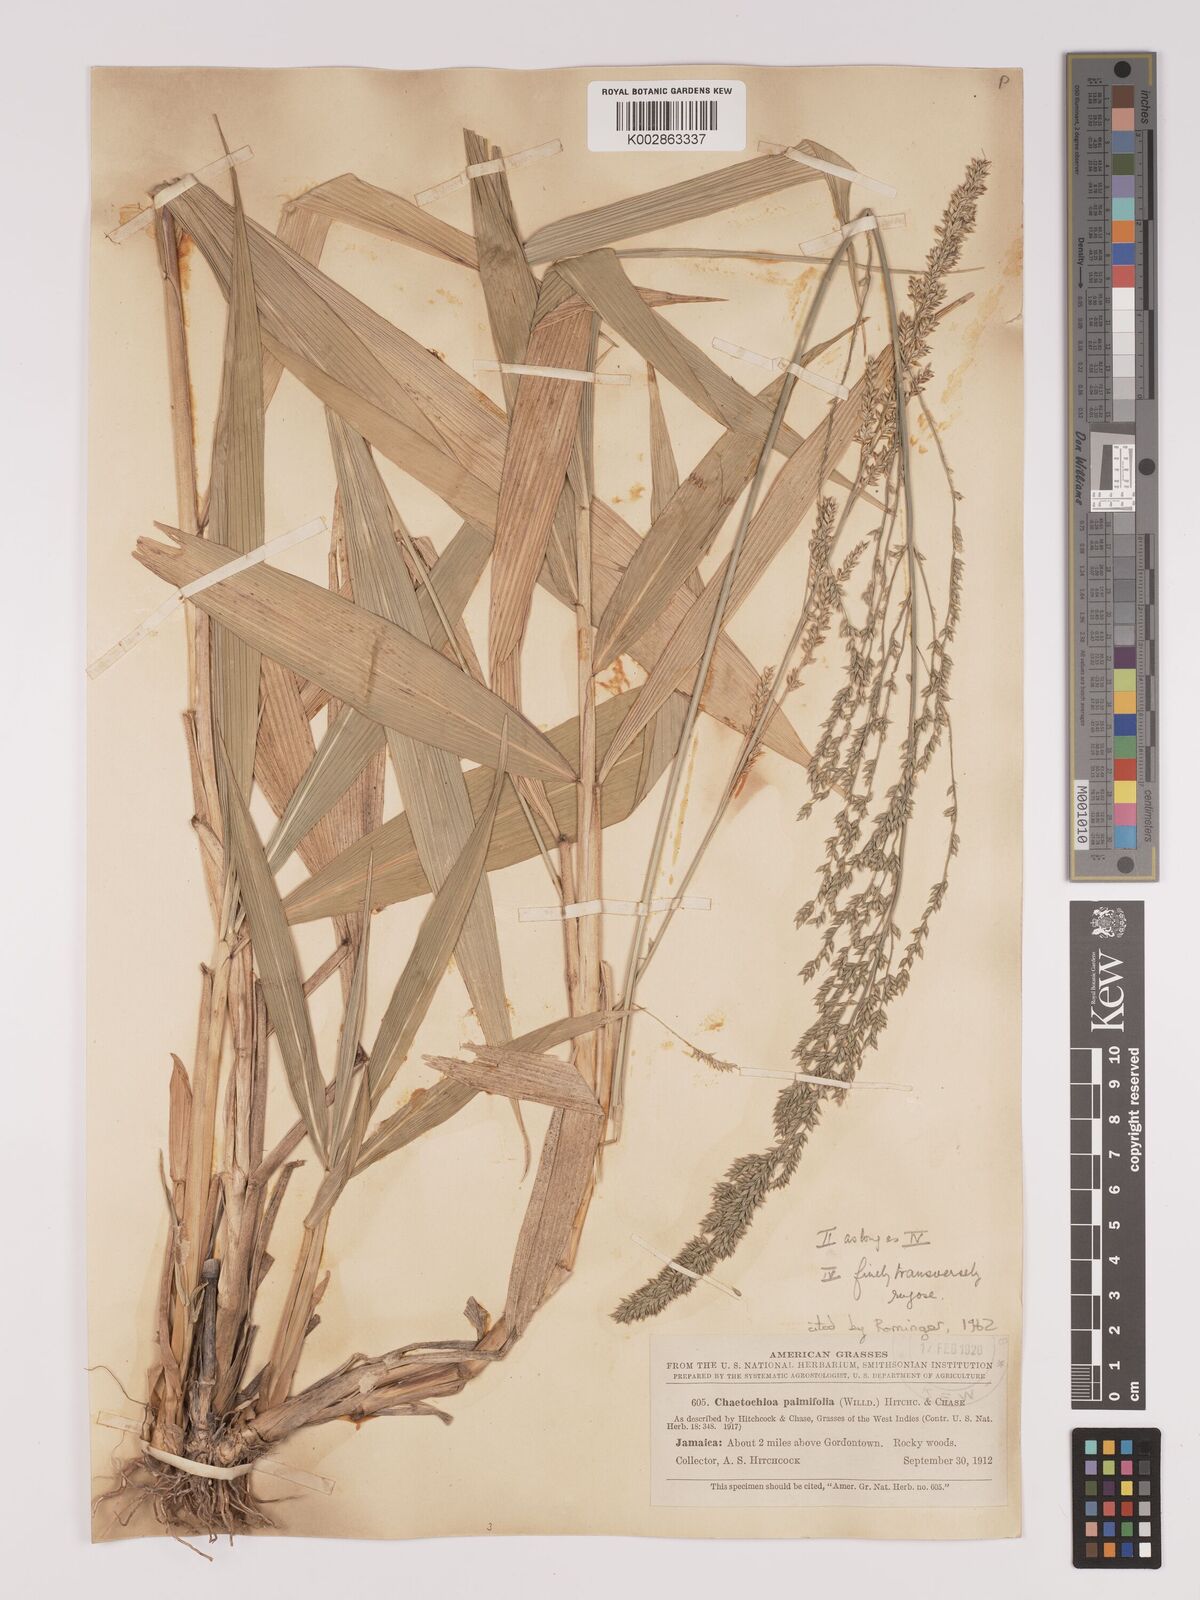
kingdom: Plantae
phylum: Tracheophyta
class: Liliopsida
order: Poales
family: Poaceae
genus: Setaria
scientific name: Setaria palmifolia
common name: Broadleaved bristlegrass
